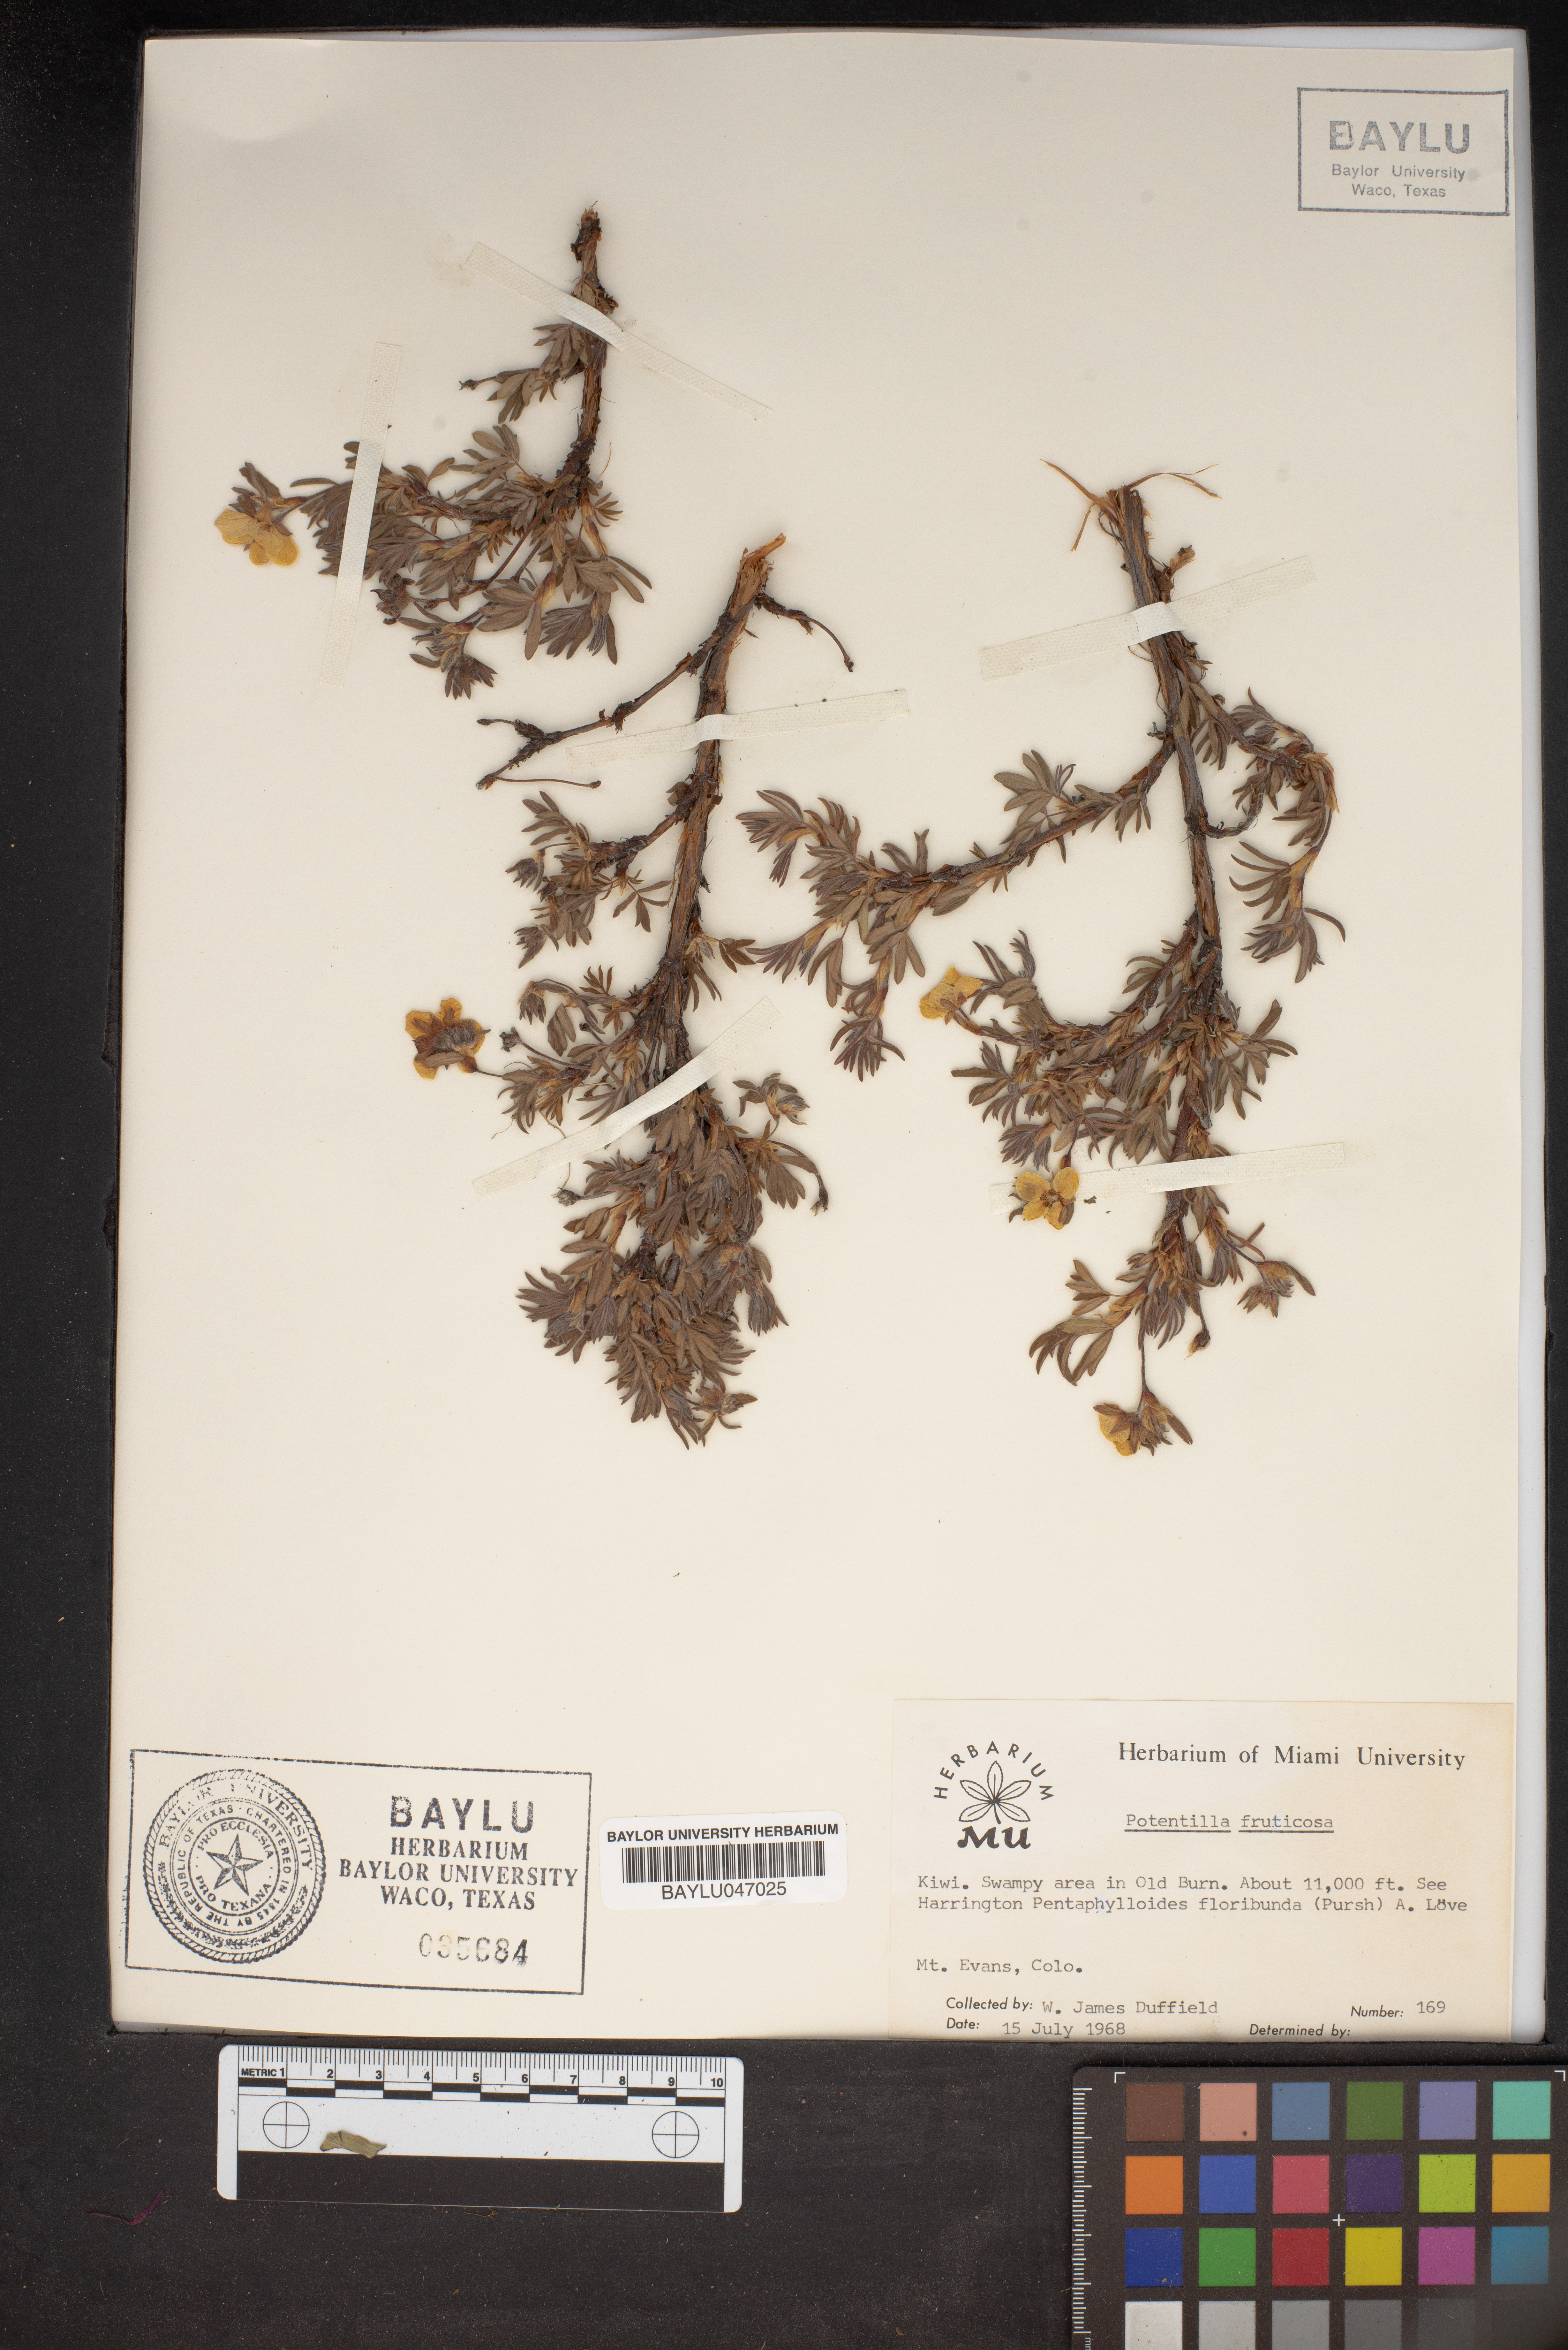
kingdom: Plantae
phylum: Tracheophyta
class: Magnoliopsida
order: Rosales
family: Rosaceae
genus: Dasiphora
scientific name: Dasiphora fruticosa
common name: Shrubby cinquefoil
